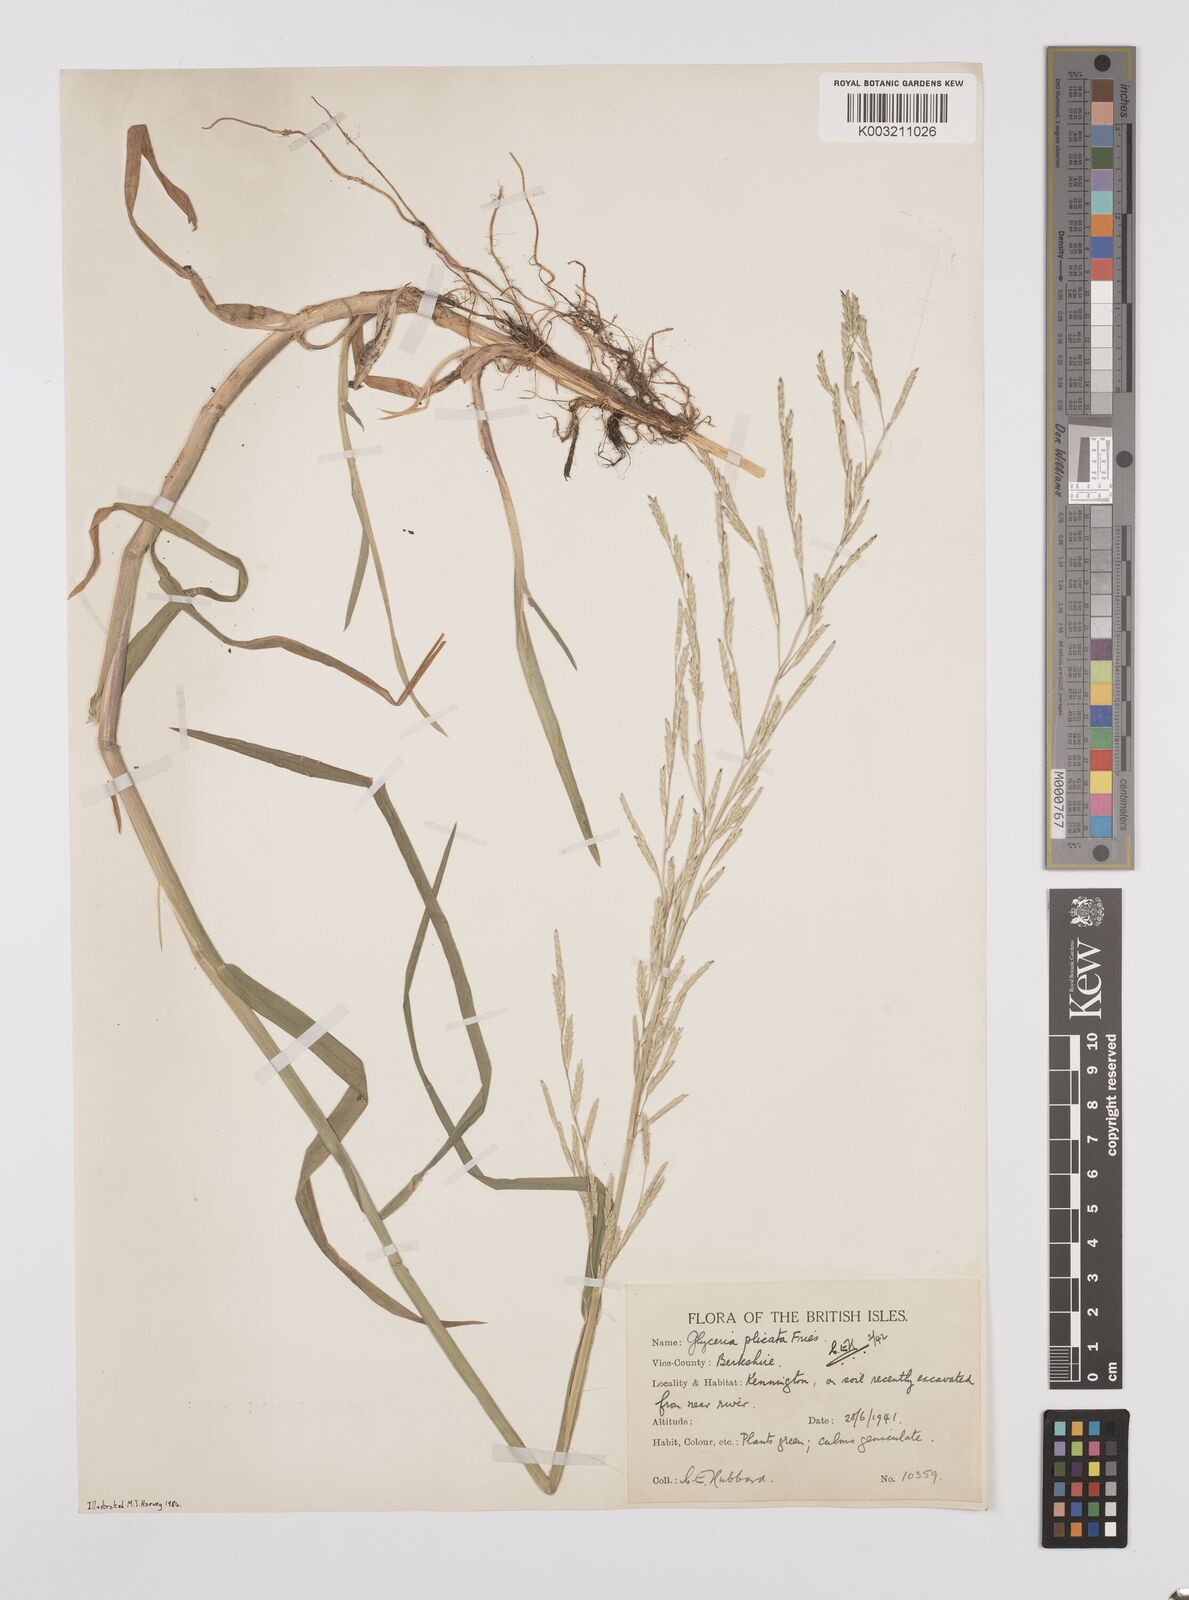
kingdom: Plantae
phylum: Tracheophyta
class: Liliopsida
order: Poales
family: Poaceae
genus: Glyceria
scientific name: Glyceria notata
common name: Plicate sweet-grass
